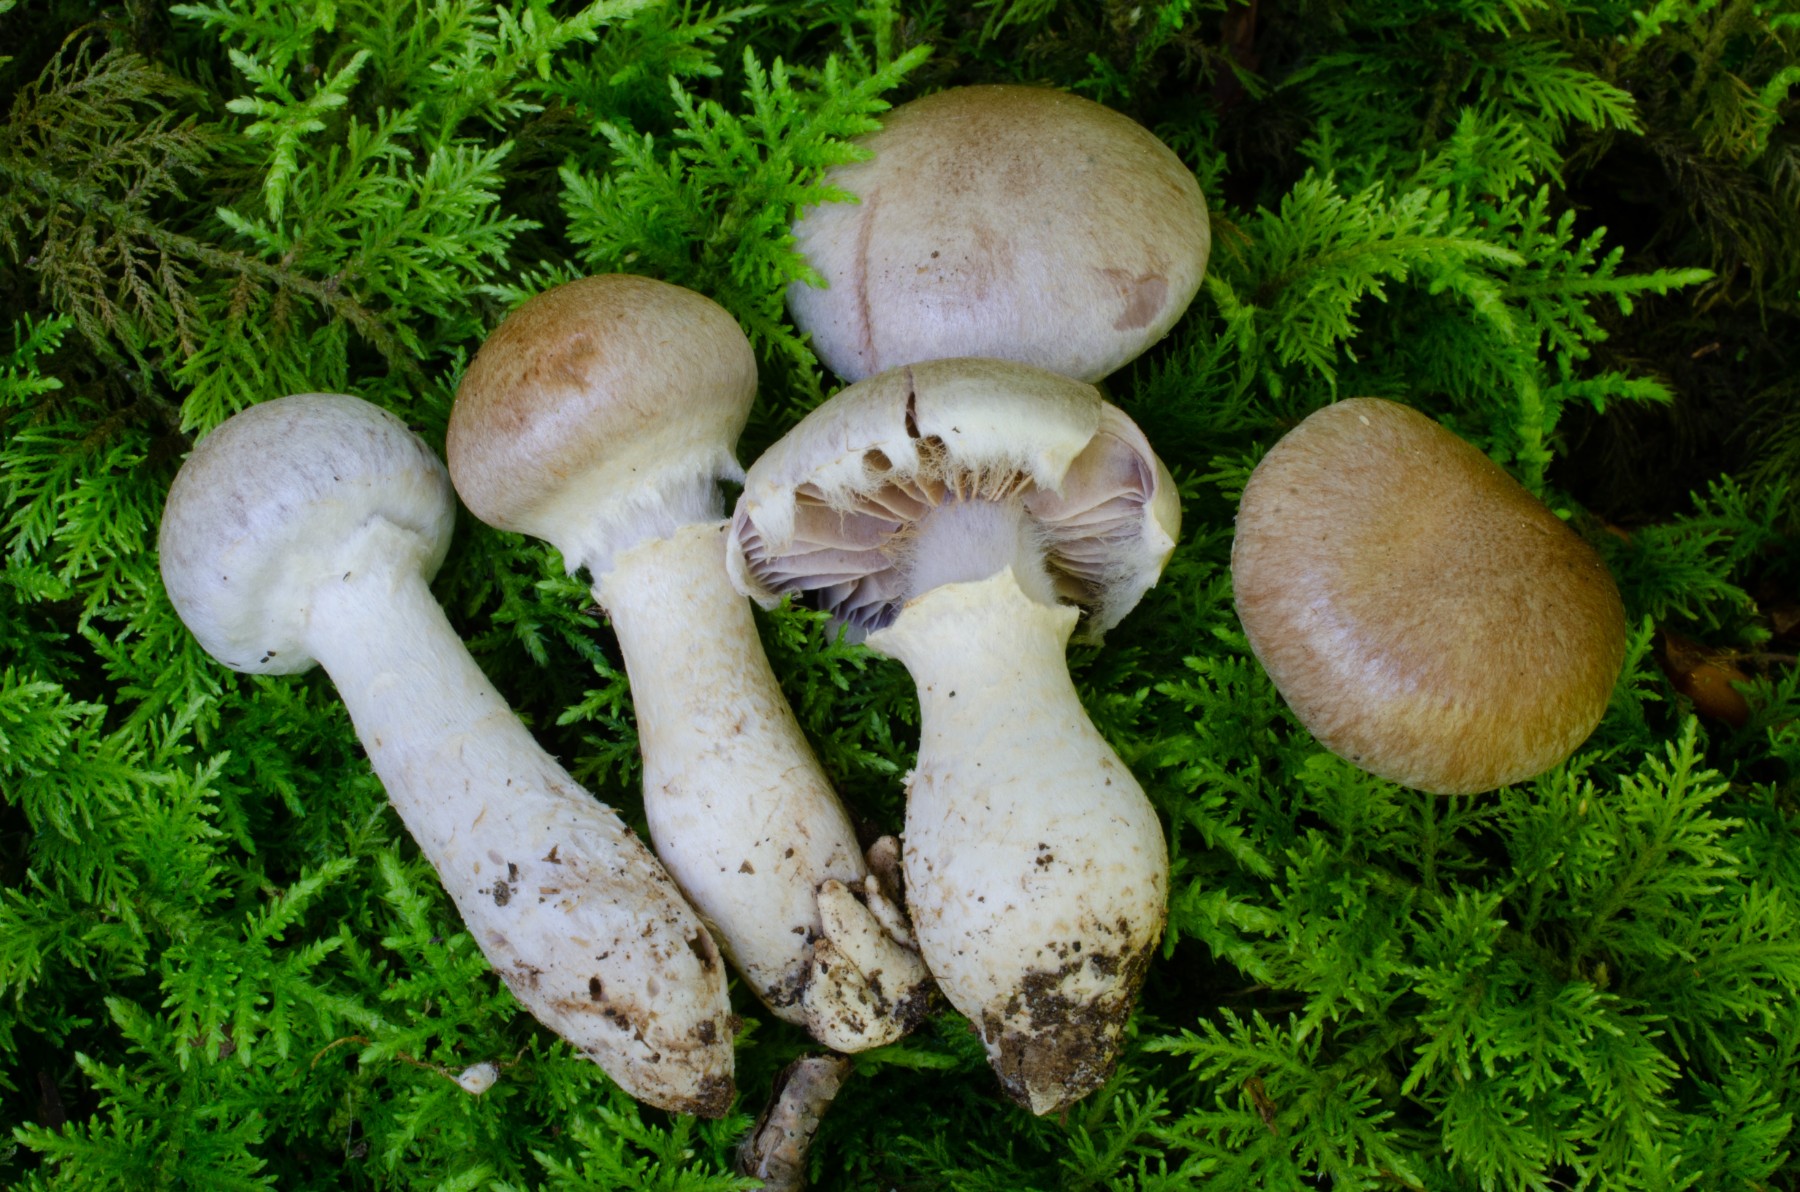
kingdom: Fungi
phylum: Basidiomycota
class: Agaricomycetes
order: Agaricales
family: Cortinariaceae
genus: Cortinarius
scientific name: Cortinarius torvus
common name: champignonagtig slørhat
